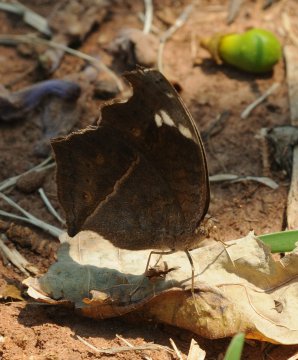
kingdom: Animalia
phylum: Arthropoda
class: Insecta
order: Lepidoptera
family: Nymphalidae
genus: Junonia
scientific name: Junonia natalica
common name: Natal Pansy
